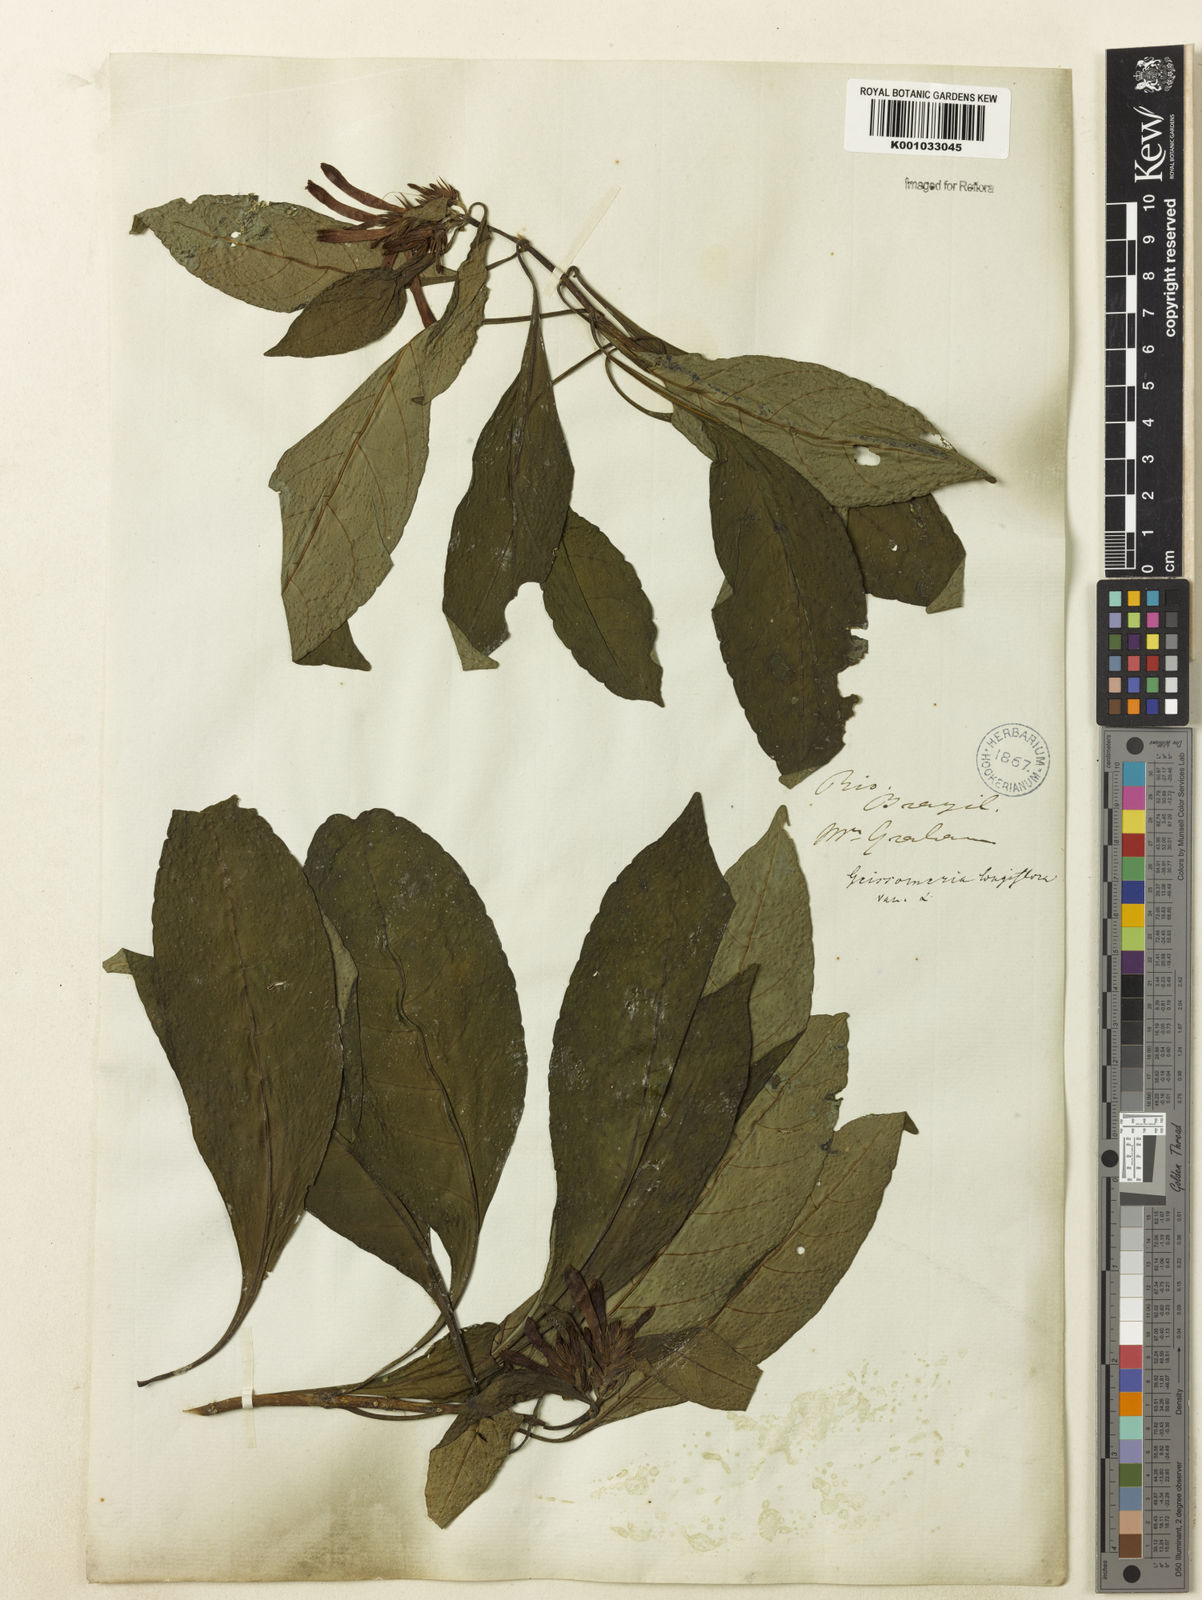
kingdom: Plantae
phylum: Tracheophyta
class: Magnoliopsida
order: Lamiales
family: Acanthaceae
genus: Aphelandra
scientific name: Aphelandra longiflora
